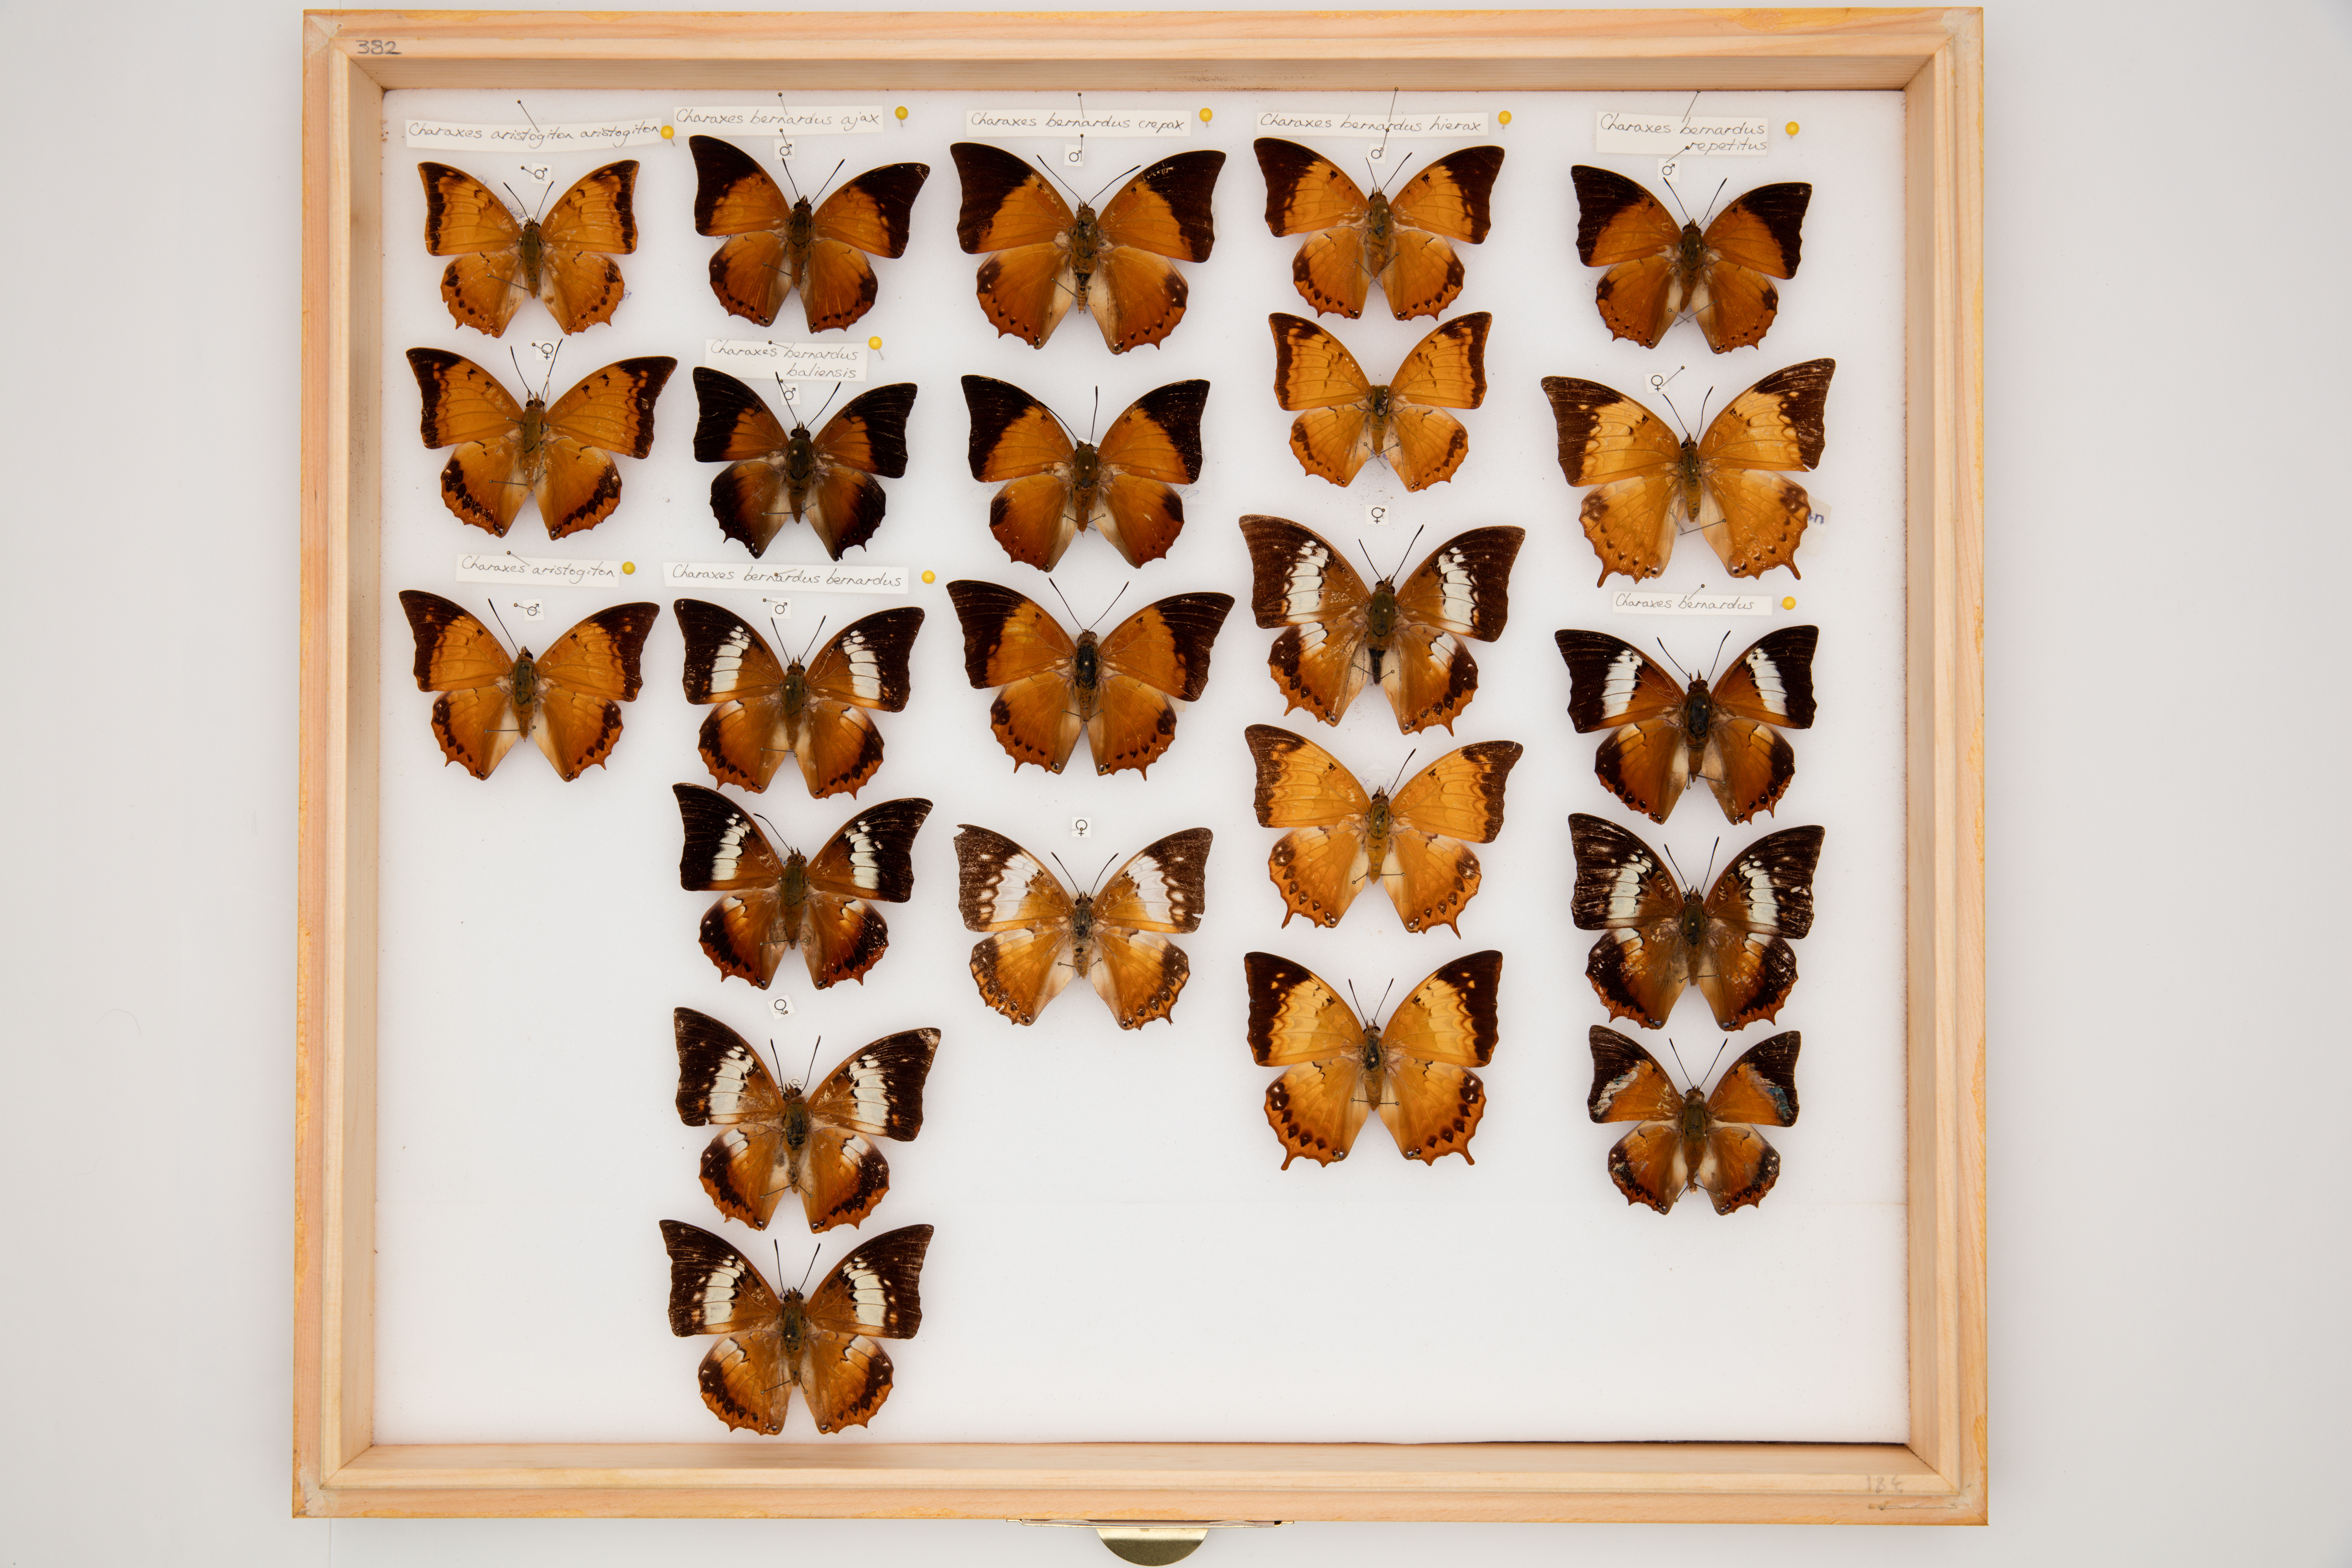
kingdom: Animalia
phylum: Arthropoda
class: Insecta
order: Lepidoptera
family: Nymphalidae
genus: Charaxes
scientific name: Charaxes bernardus
